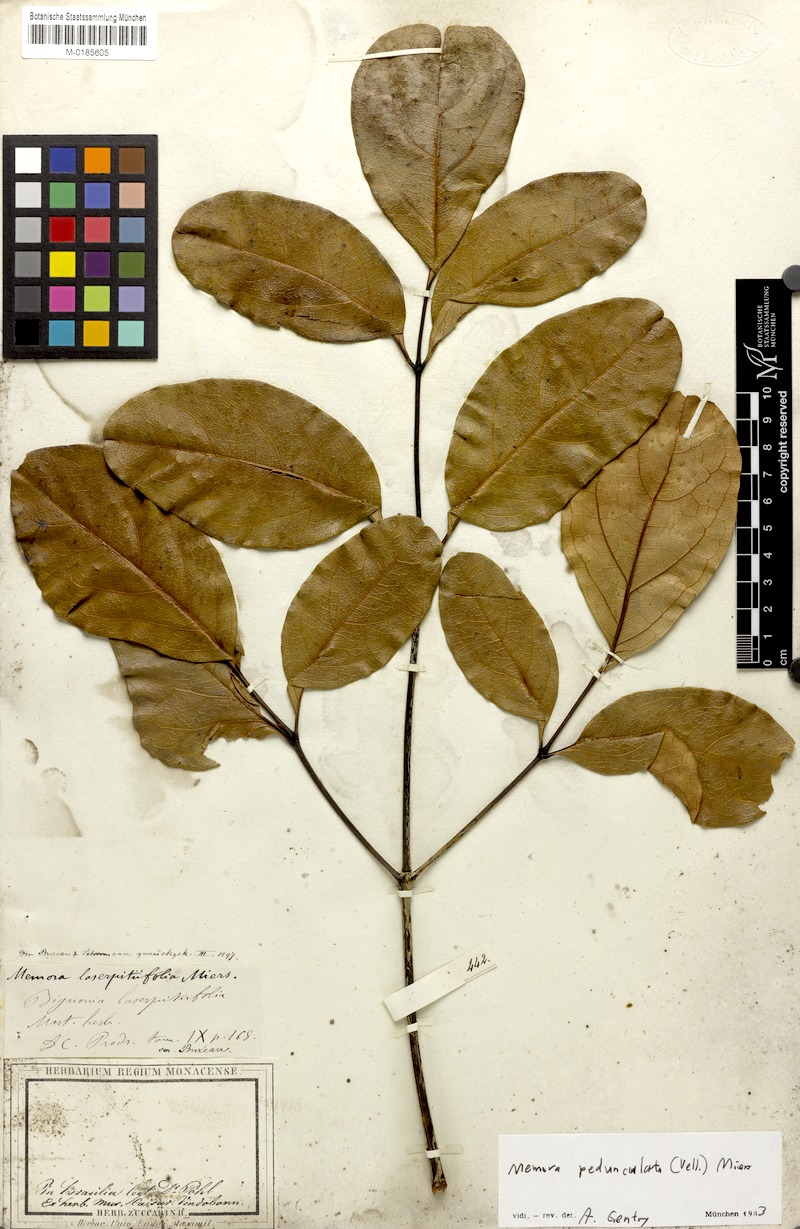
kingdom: Plantae
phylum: Tracheophyta
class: Magnoliopsida
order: Lamiales
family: Bignoniaceae
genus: Adenocalymma
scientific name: Adenocalymma pedunculatum
